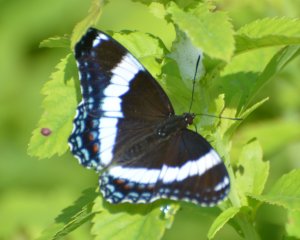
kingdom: Animalia
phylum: Arthropoda
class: Insecta
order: Lepidoptera
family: Nymphalidae
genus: Limenitis
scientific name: Limenitis arthemis
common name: Red-spotted Admiral
